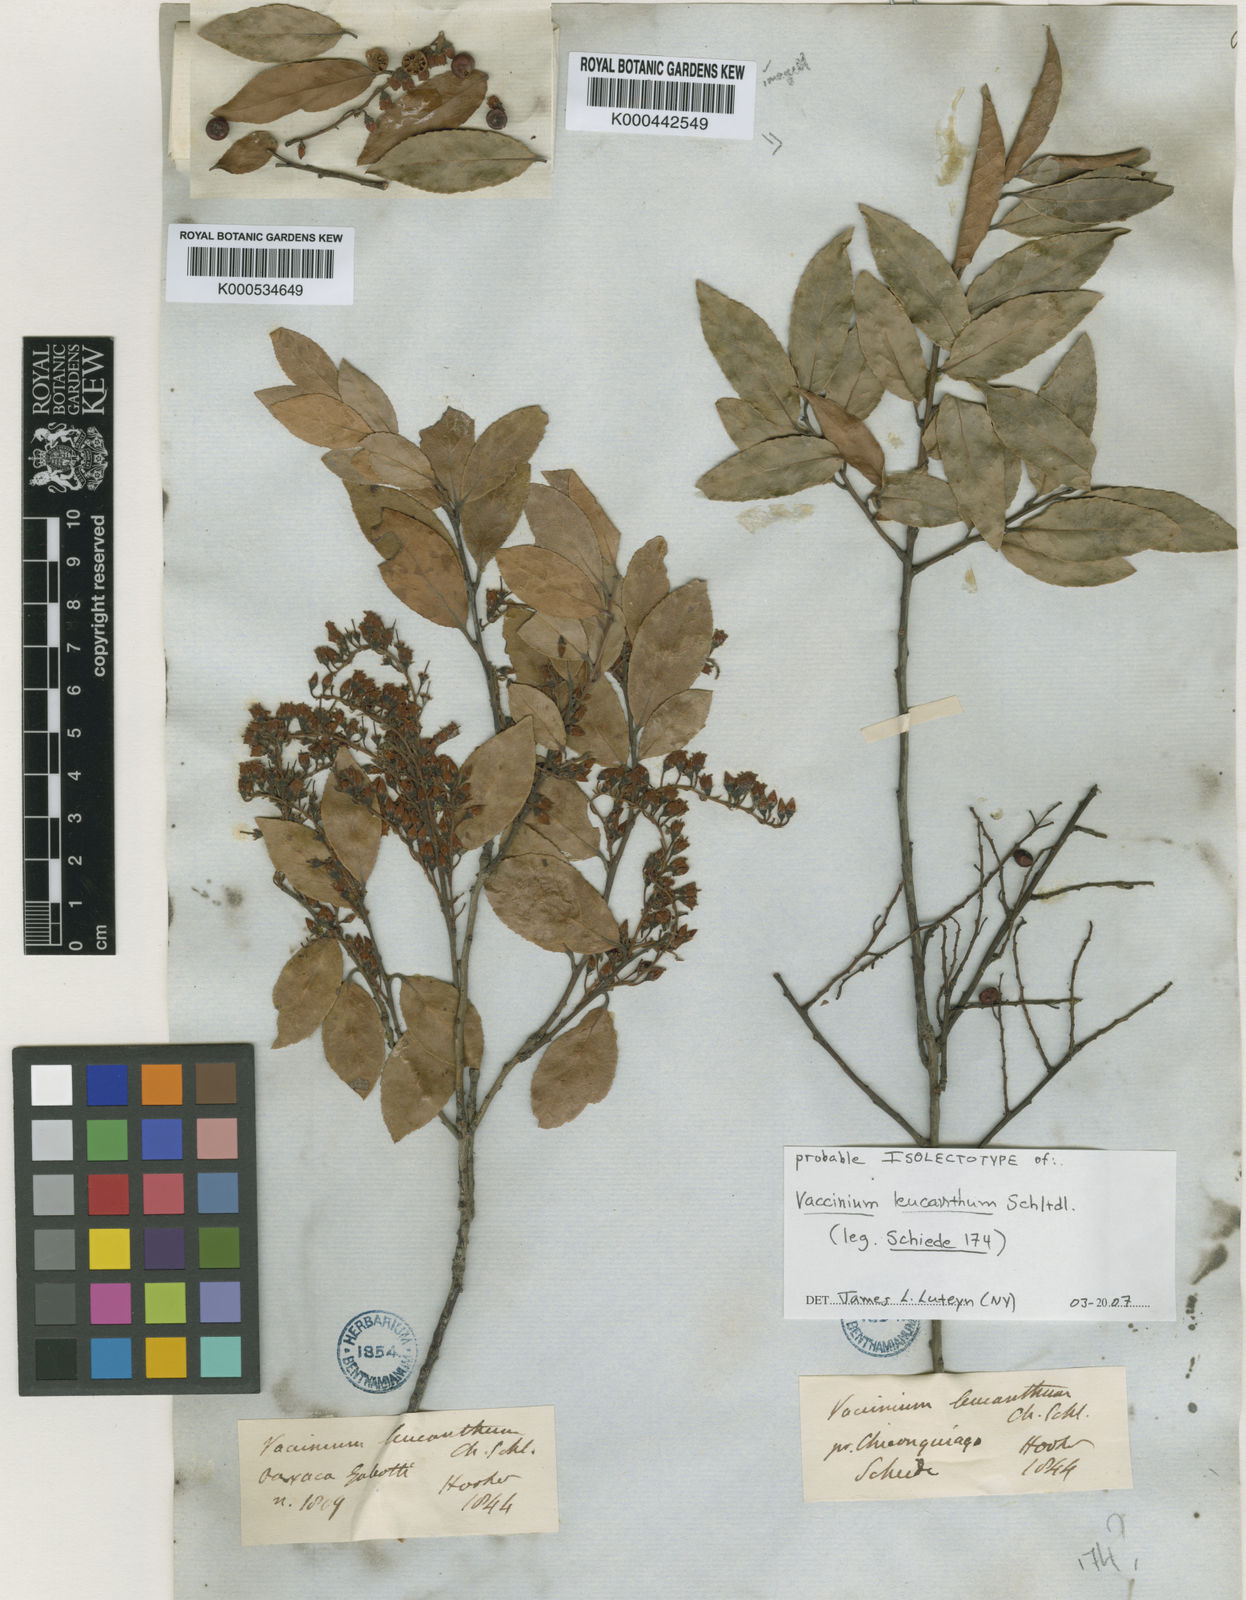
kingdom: Plantae
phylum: Tracheophyta
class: Magnoliopsida
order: Ericales
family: Ericaceae
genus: Vaccinium
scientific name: Vaccinium leucanthum
